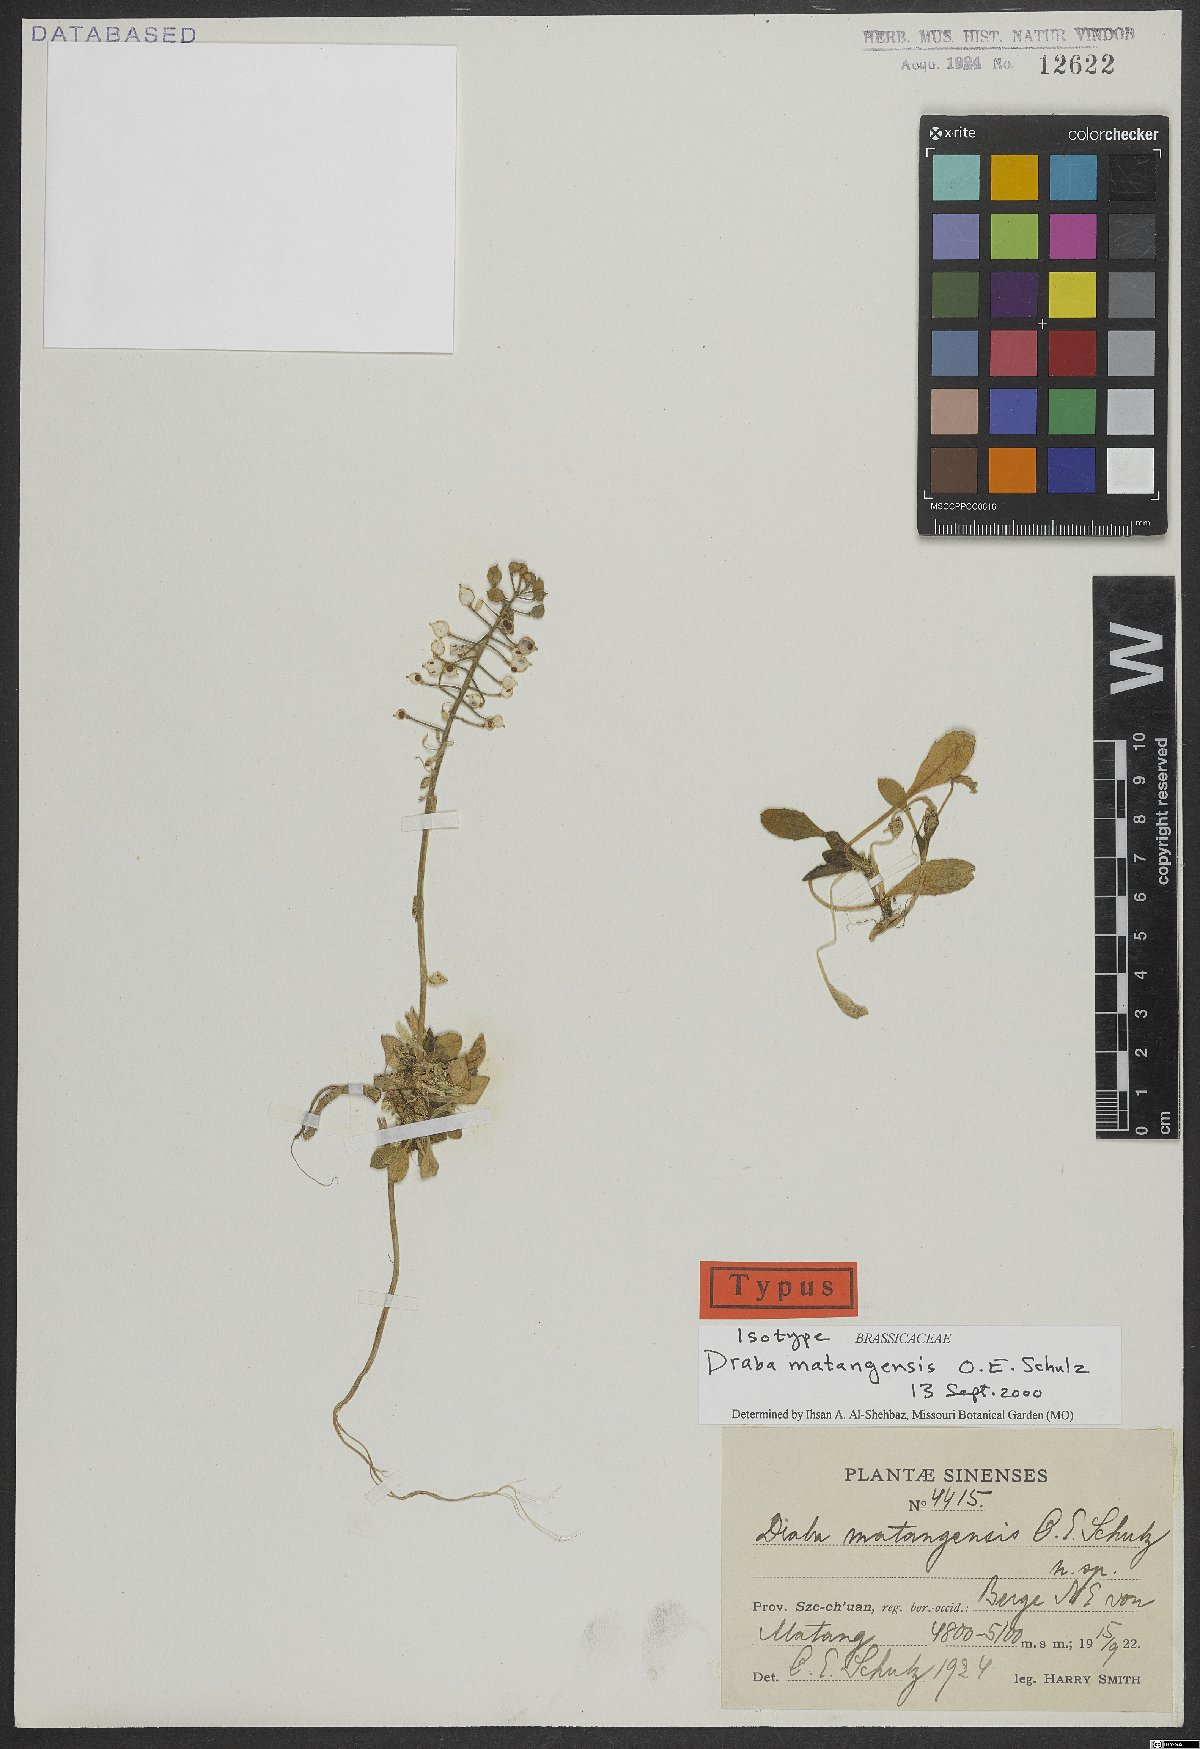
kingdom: Plantae
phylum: Tracheophyta
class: Magnoliopsida
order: Brassicales
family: Brassicaceae
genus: Draba
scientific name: Draba matangensis
